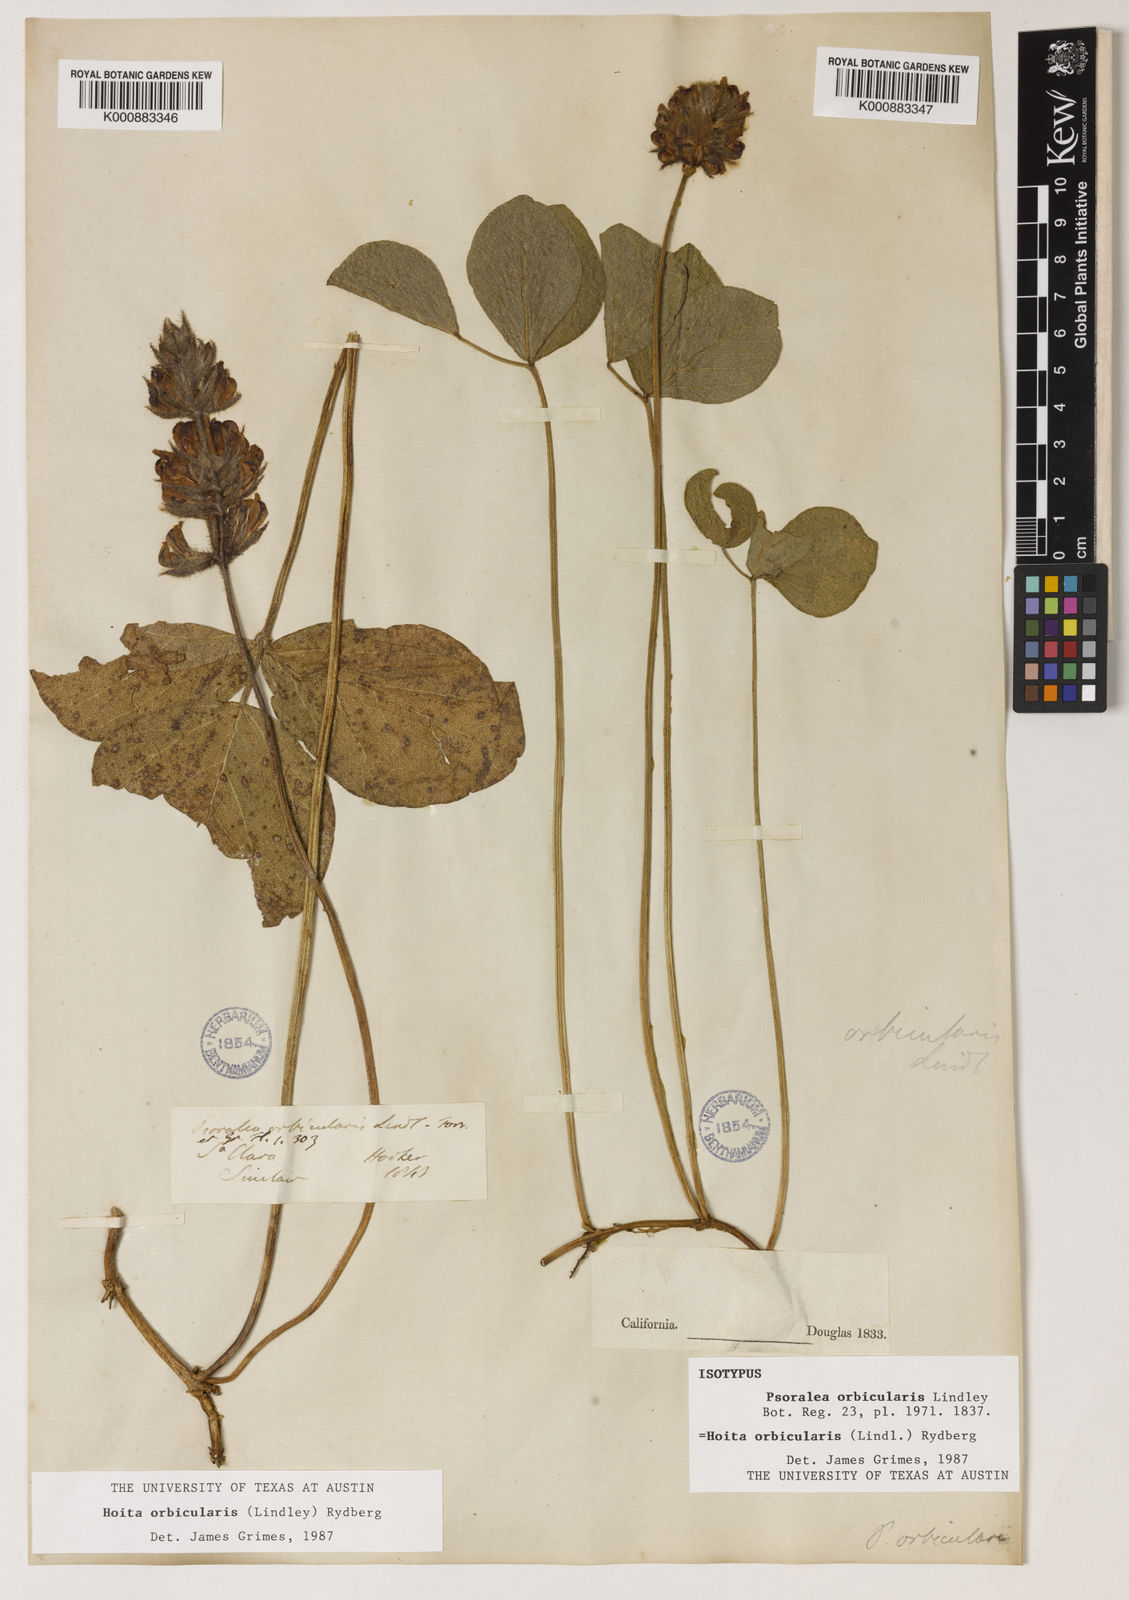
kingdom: Plantae
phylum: Tracheophyta
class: Magnoliopsida
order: Fabales
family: Fabaceae
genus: Hoita
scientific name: Hoita orbicularis
